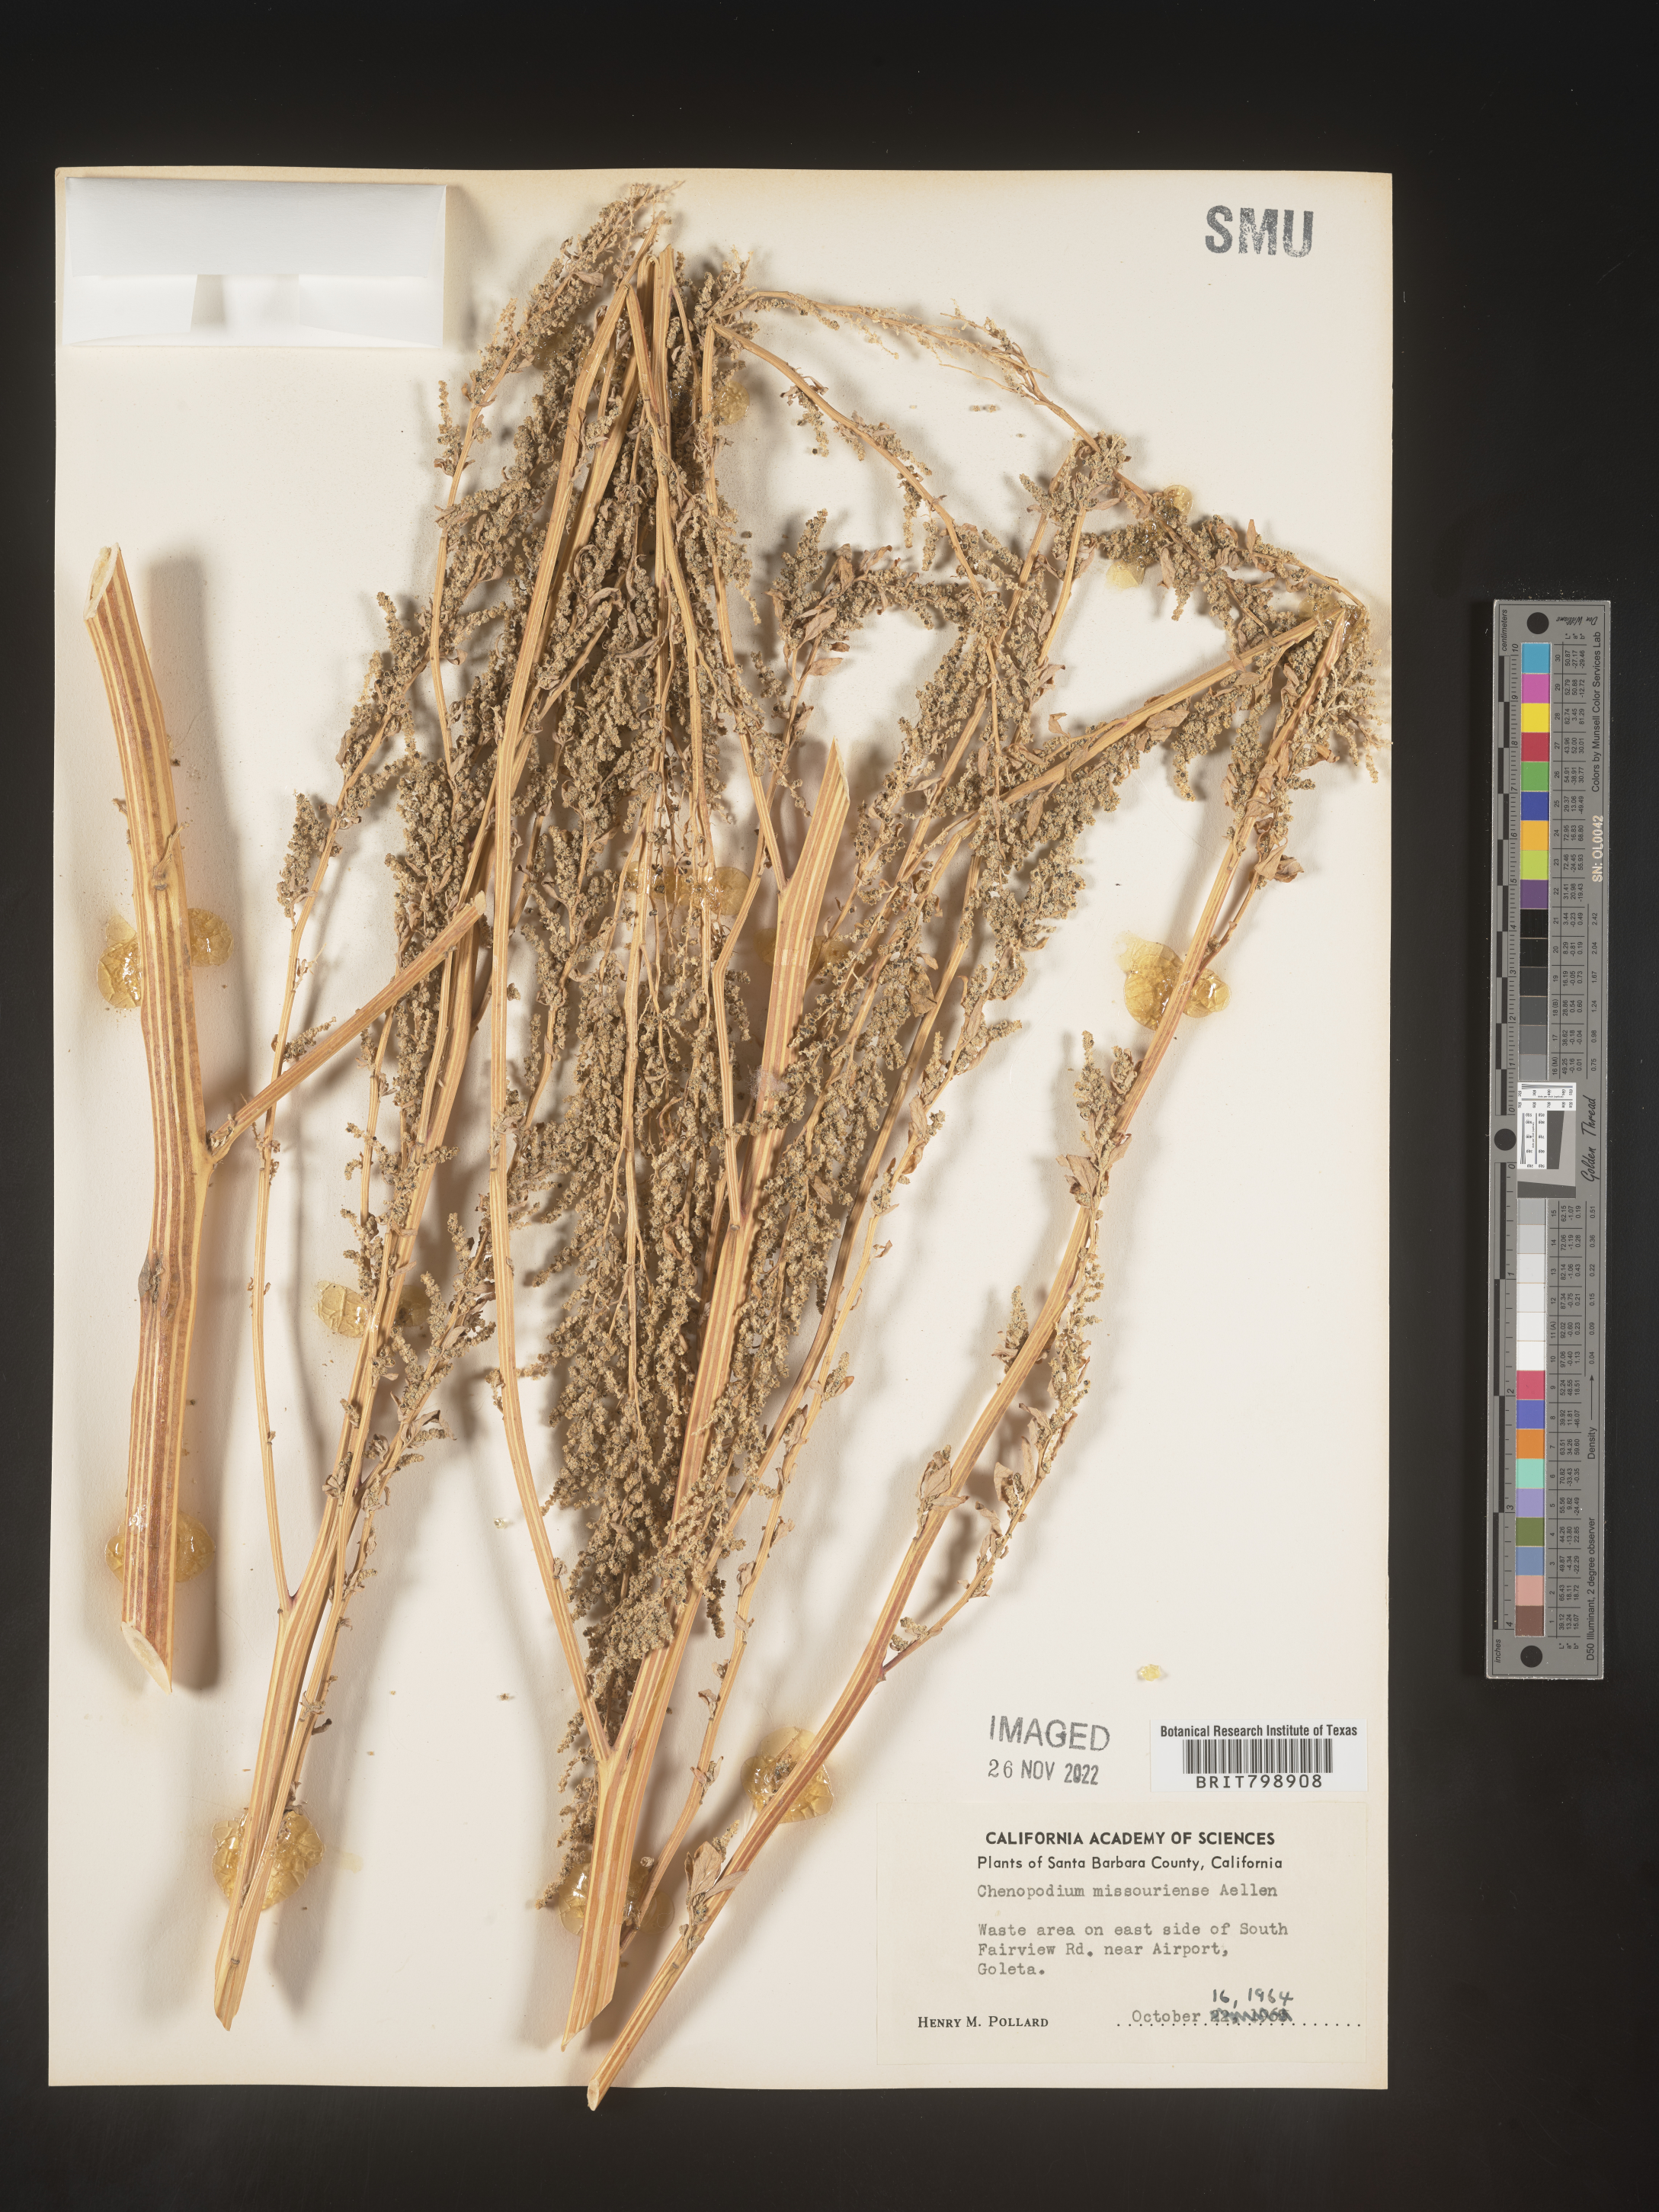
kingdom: Plantae
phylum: Tracheophyta
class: Magnoliopsida
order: Caryophyllales
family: Amaranthaceae
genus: Chenopodium
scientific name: Chenopodium album
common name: Fat-hen
